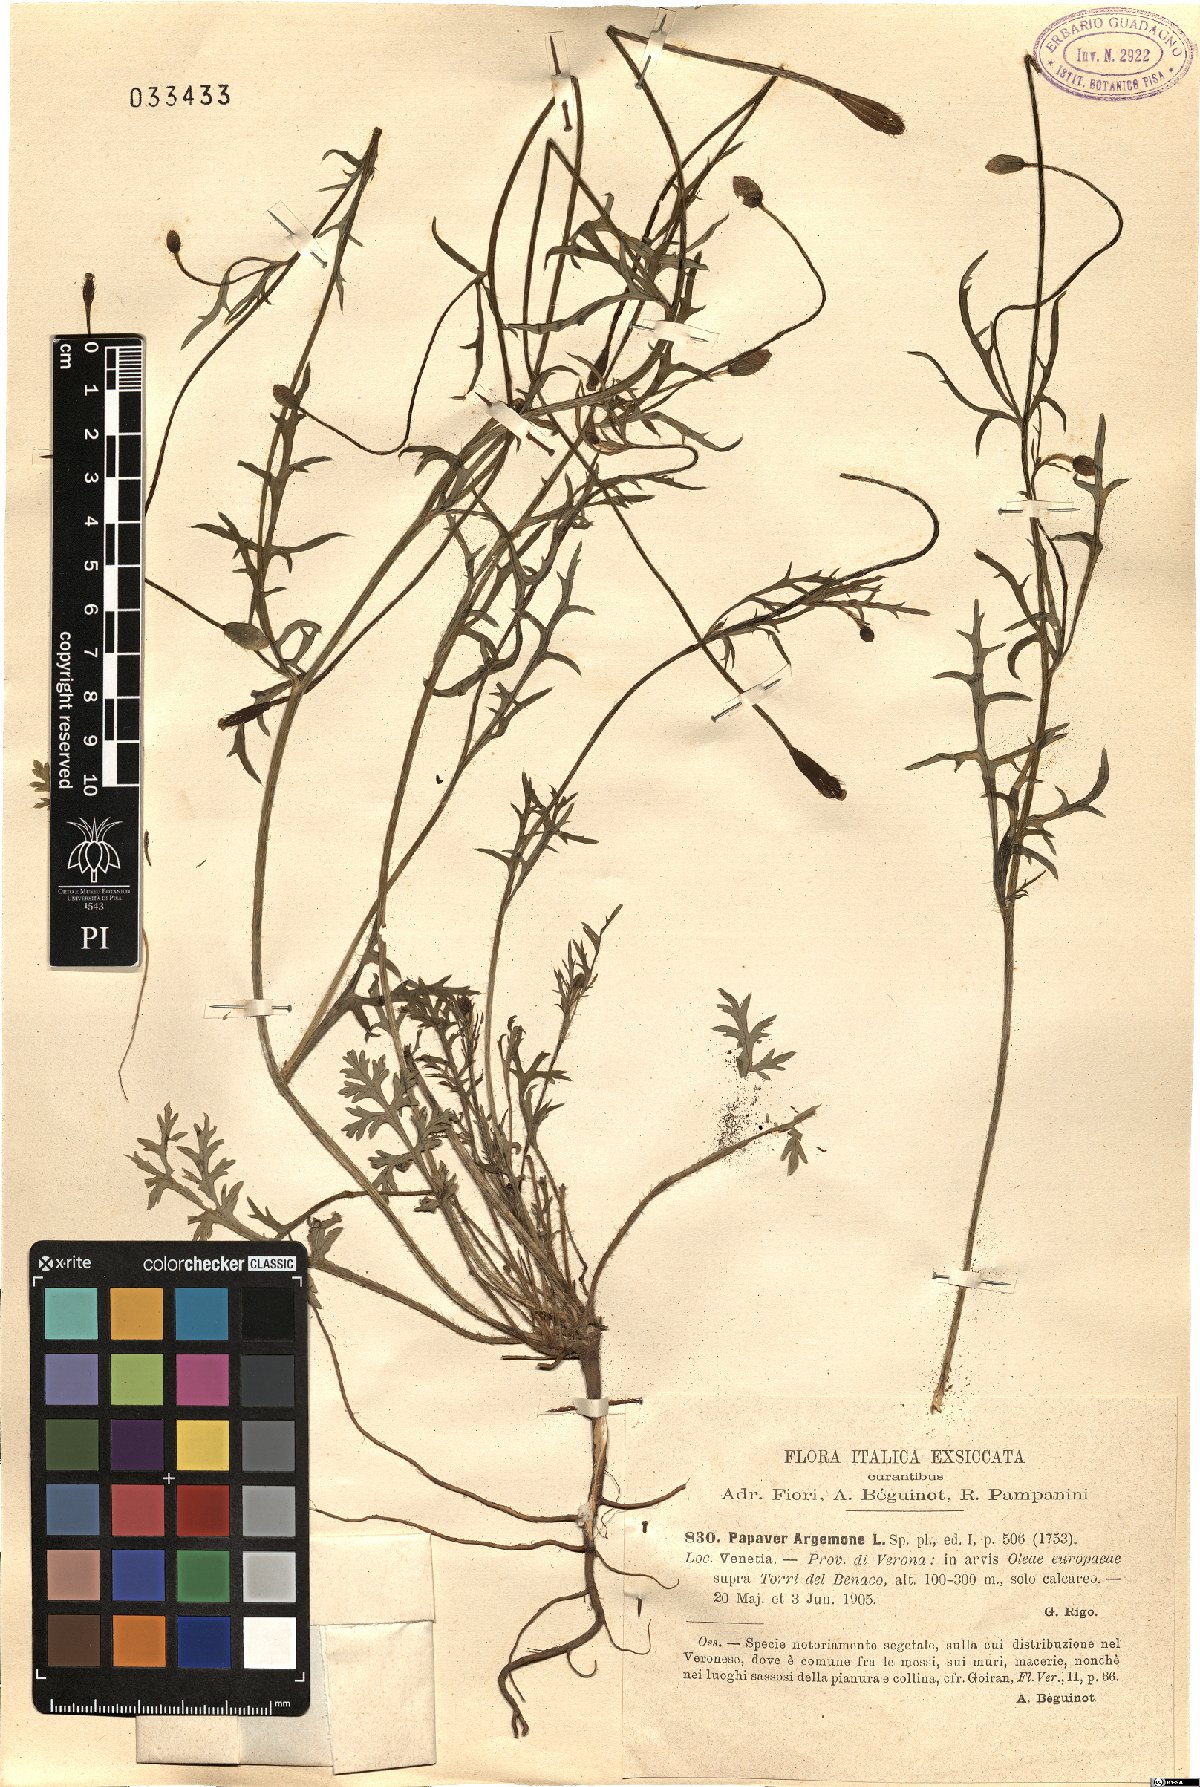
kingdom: Plantae
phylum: Tracheophyta
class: Magnoliopsida
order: Ranunculales
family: Papaveraceae
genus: Roemeria
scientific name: Roemeria argemone
